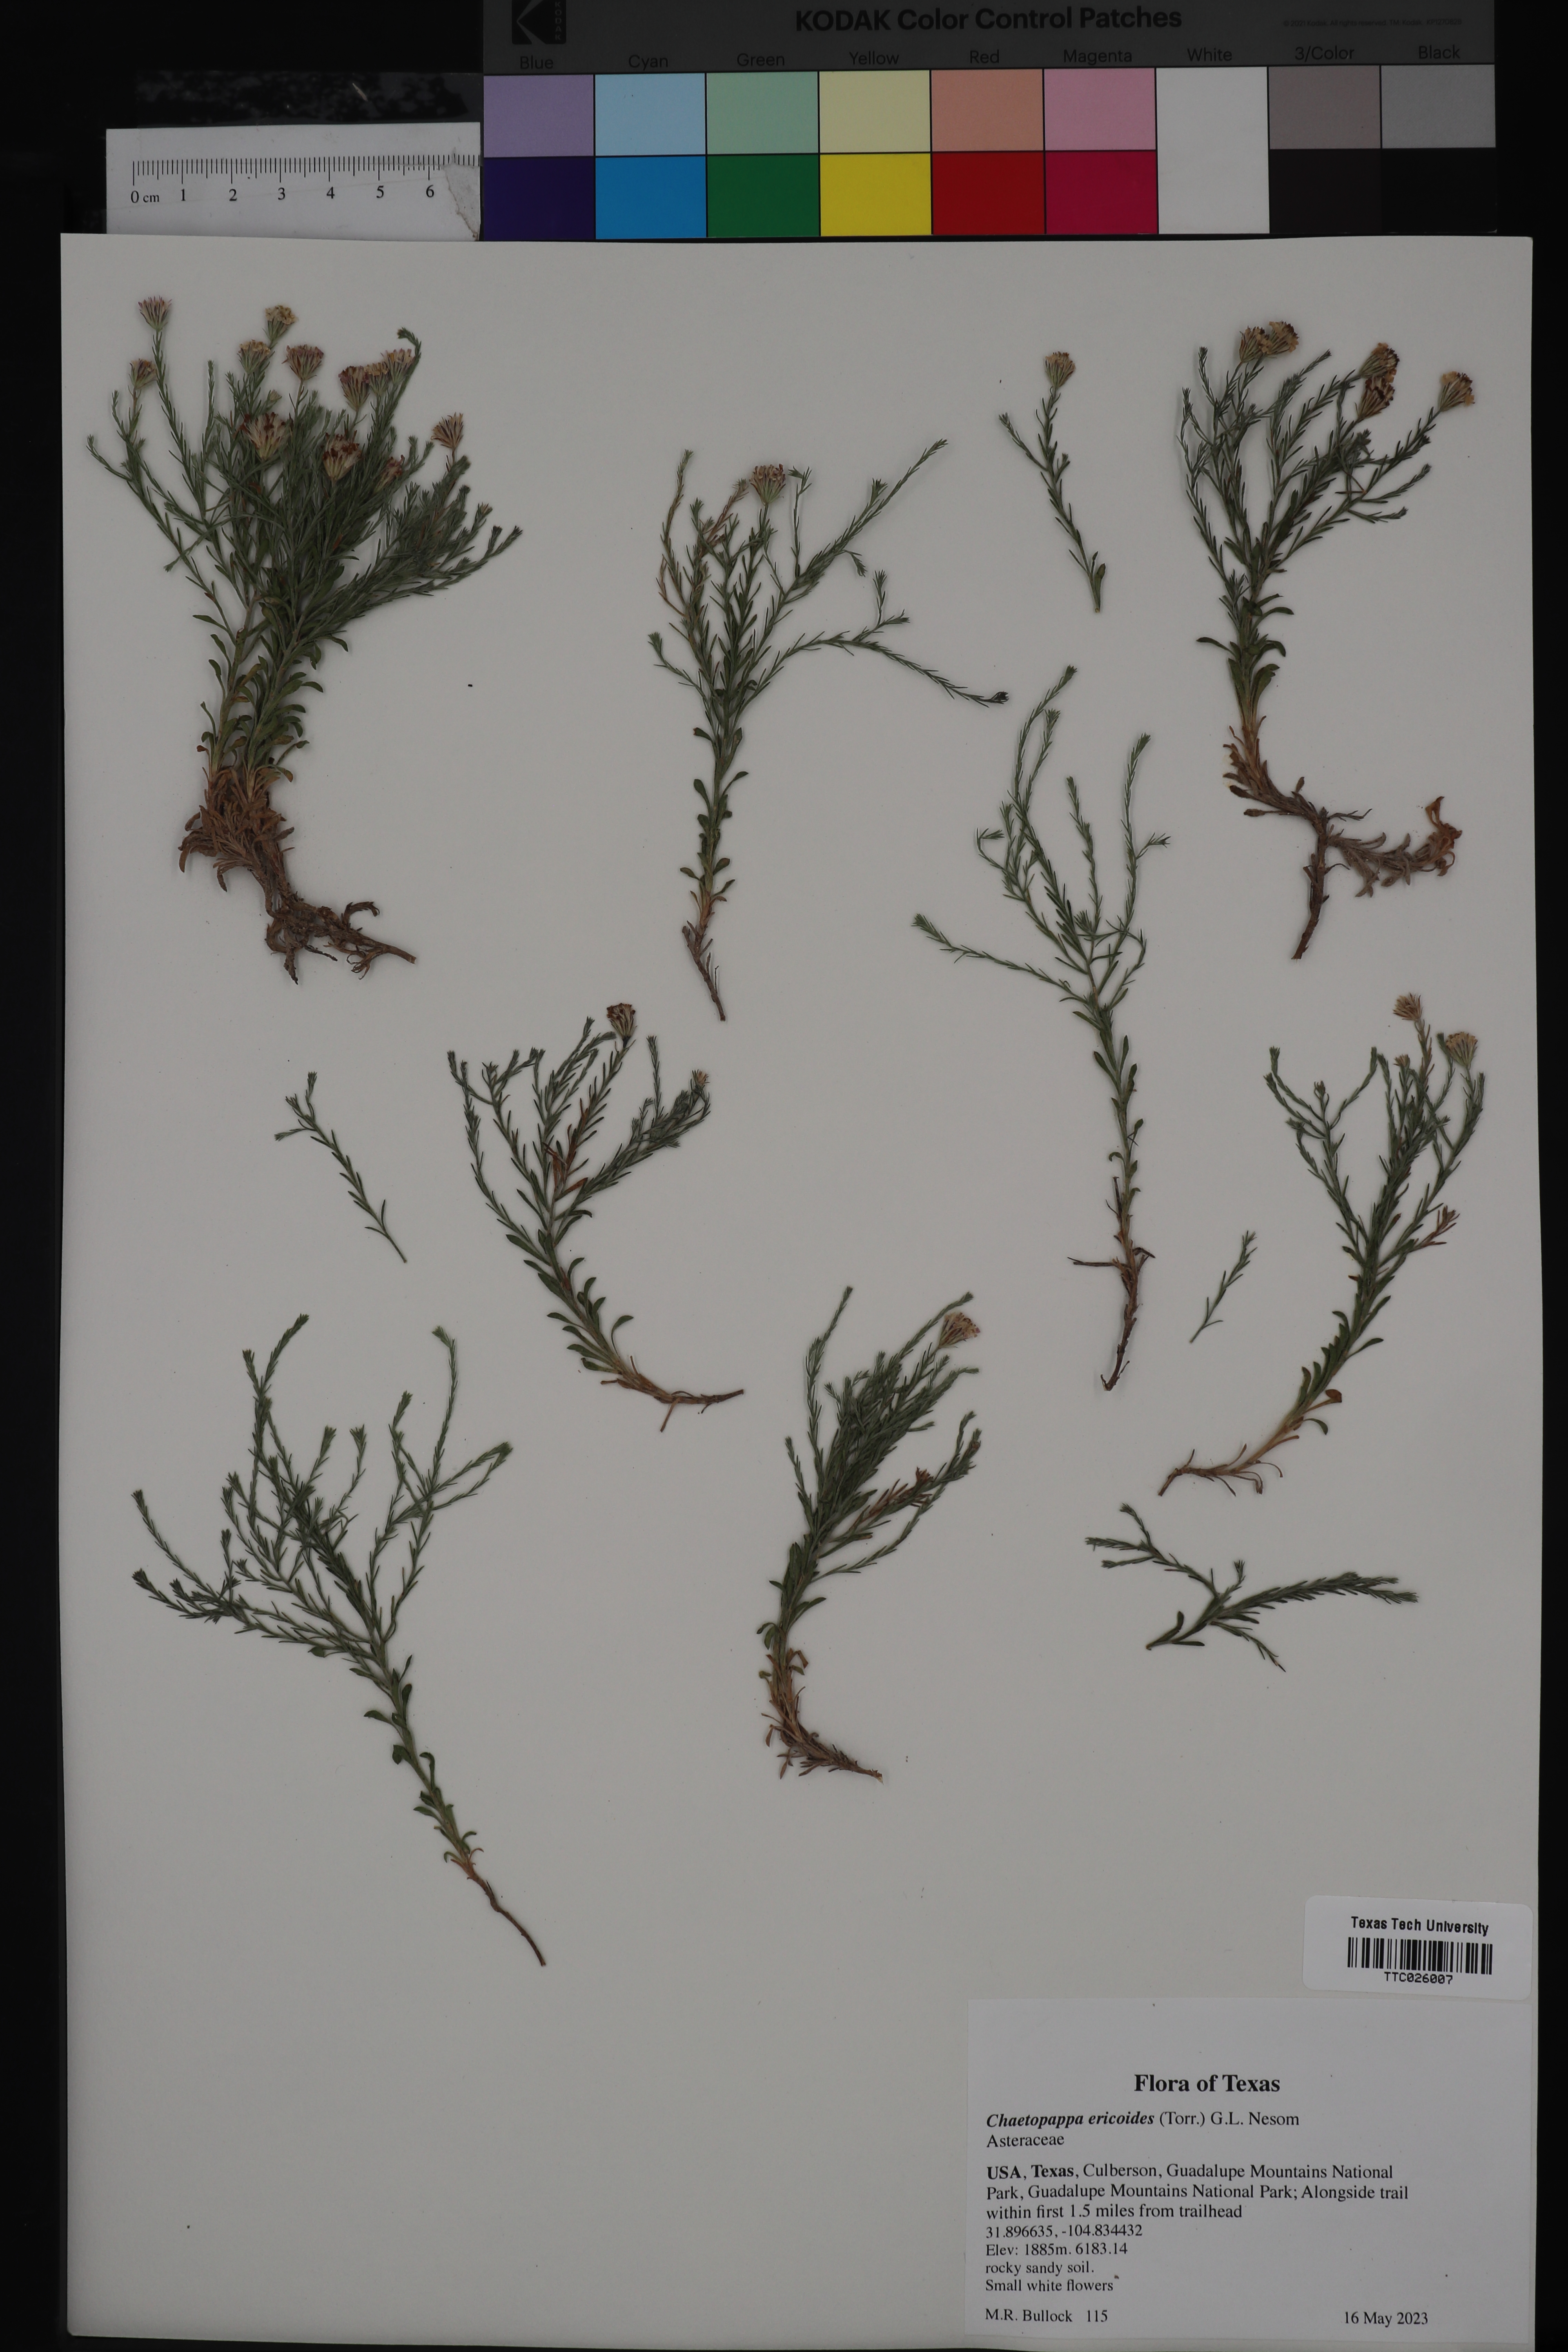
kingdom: Plantae
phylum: Tracheophyta
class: Magnoliopsida
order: Asterales
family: Asteraceae
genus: Chaetopappa
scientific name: Chaetopappa ericoides
